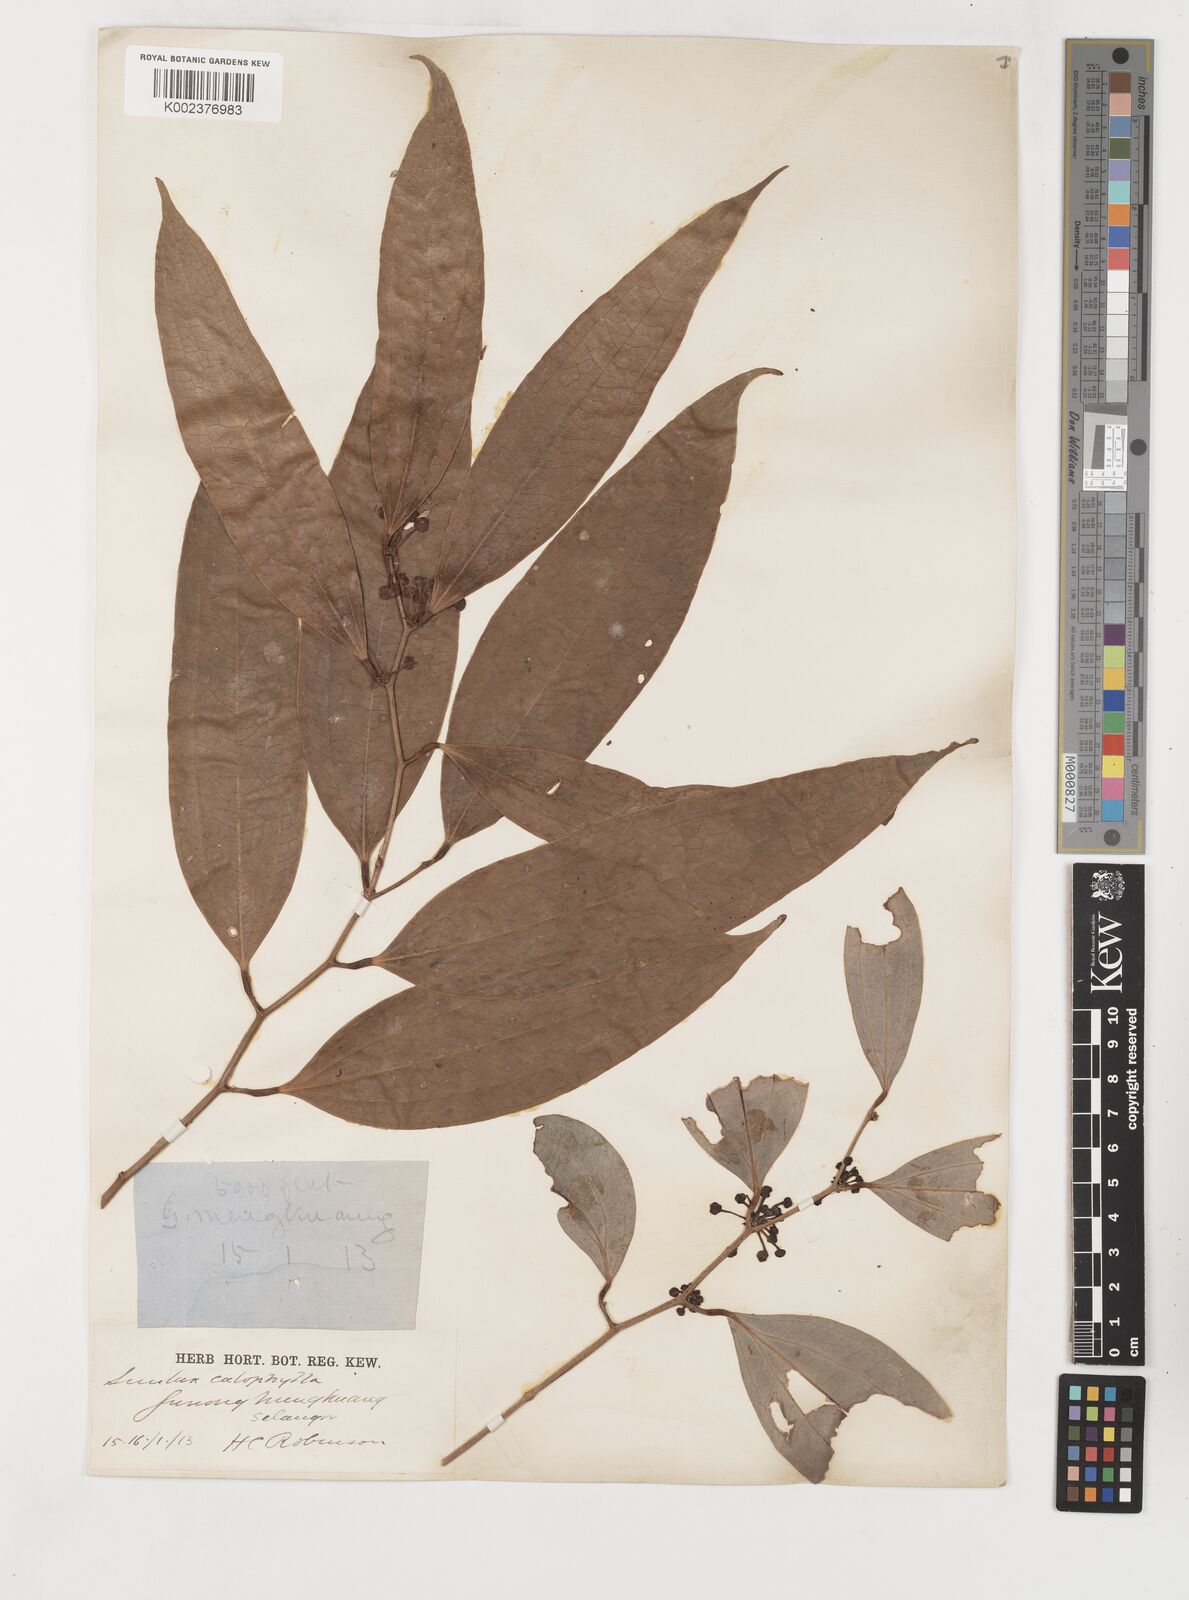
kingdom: Plantae
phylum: Tracheophyta
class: Liliopsida
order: Liliales
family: Smilacaceae
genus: Smilax
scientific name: Smilax calophylla
